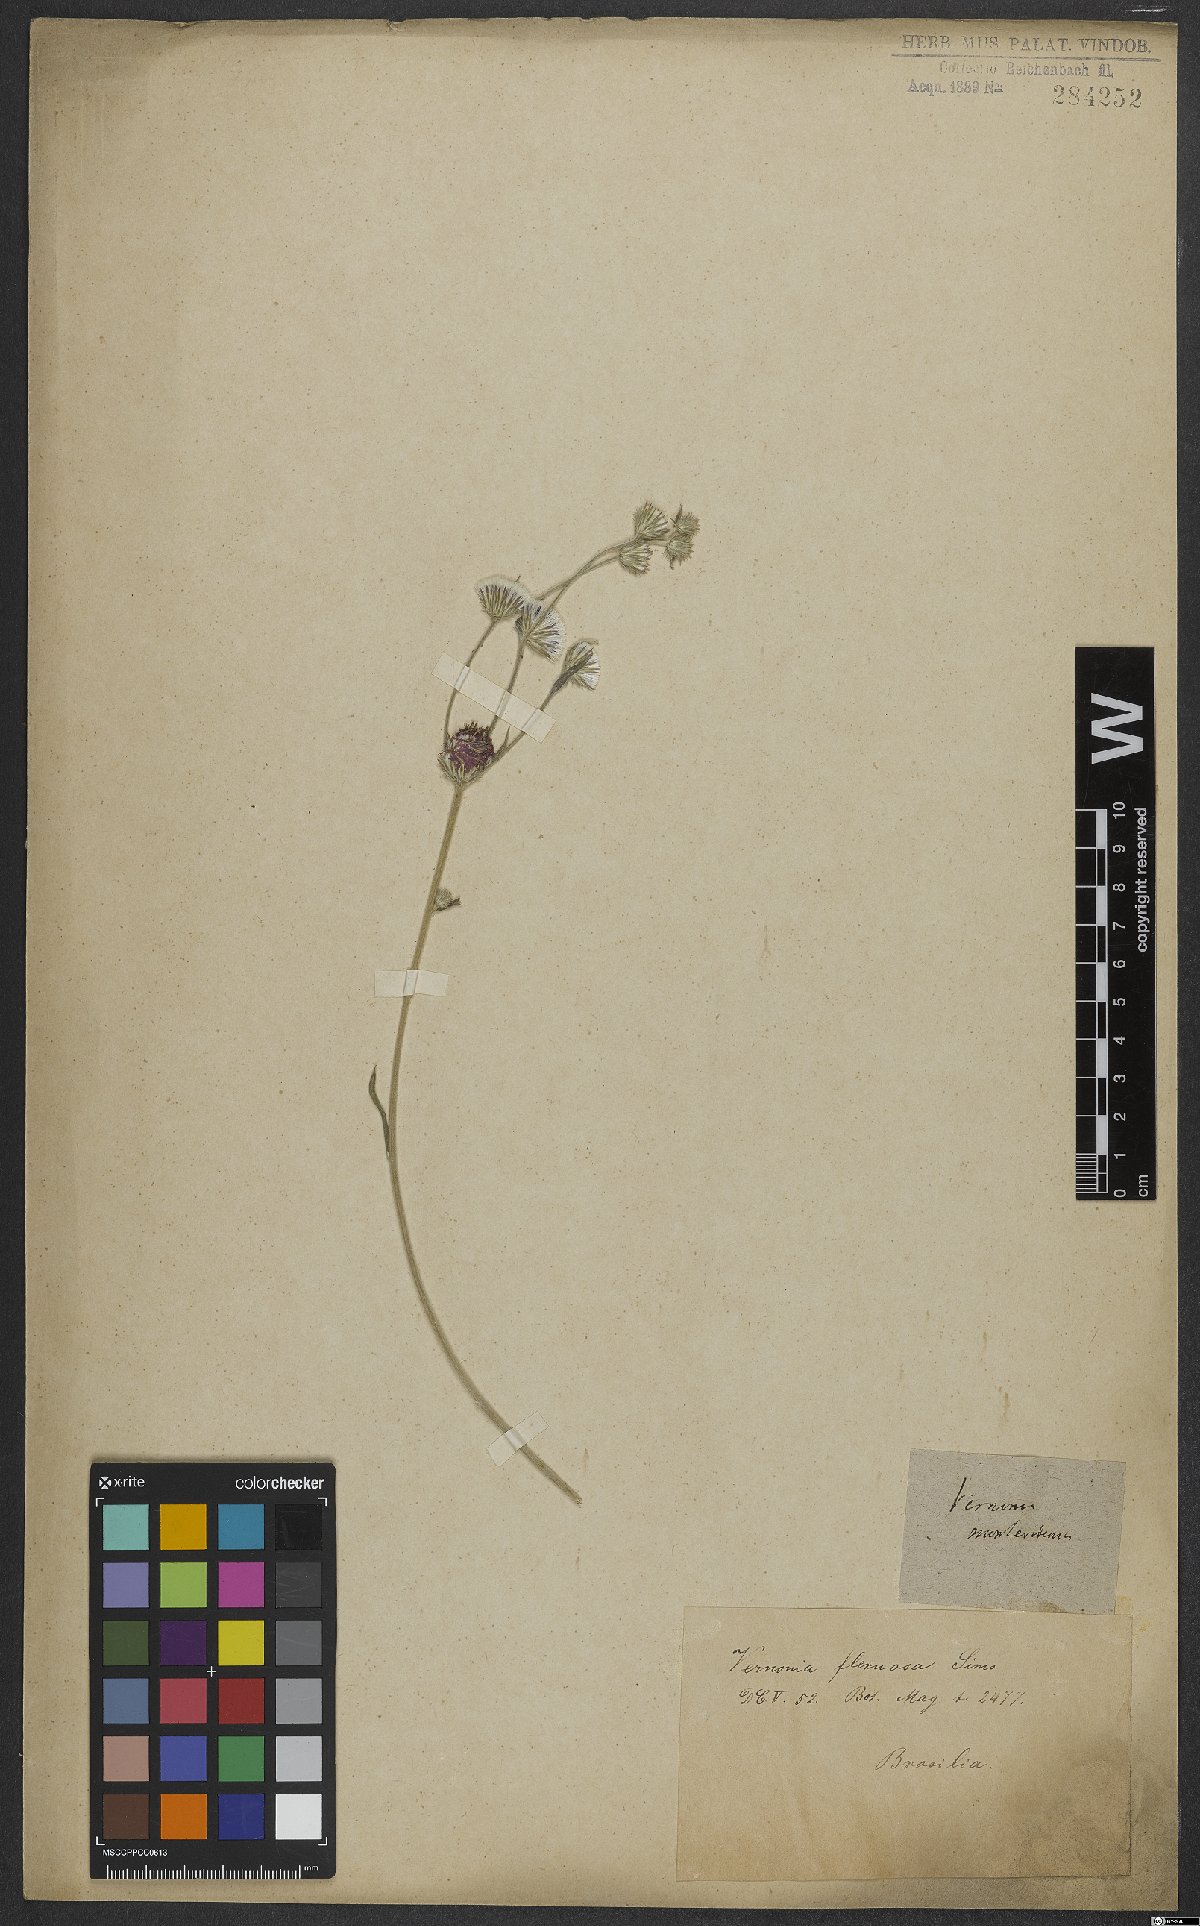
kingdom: Plantae
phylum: Tracheophyta
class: Magnoliopsida
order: Asterales
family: Asteraceae
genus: Chrysolaena
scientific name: Chrysolaena flexuosa
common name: Zig-zag vernonia
